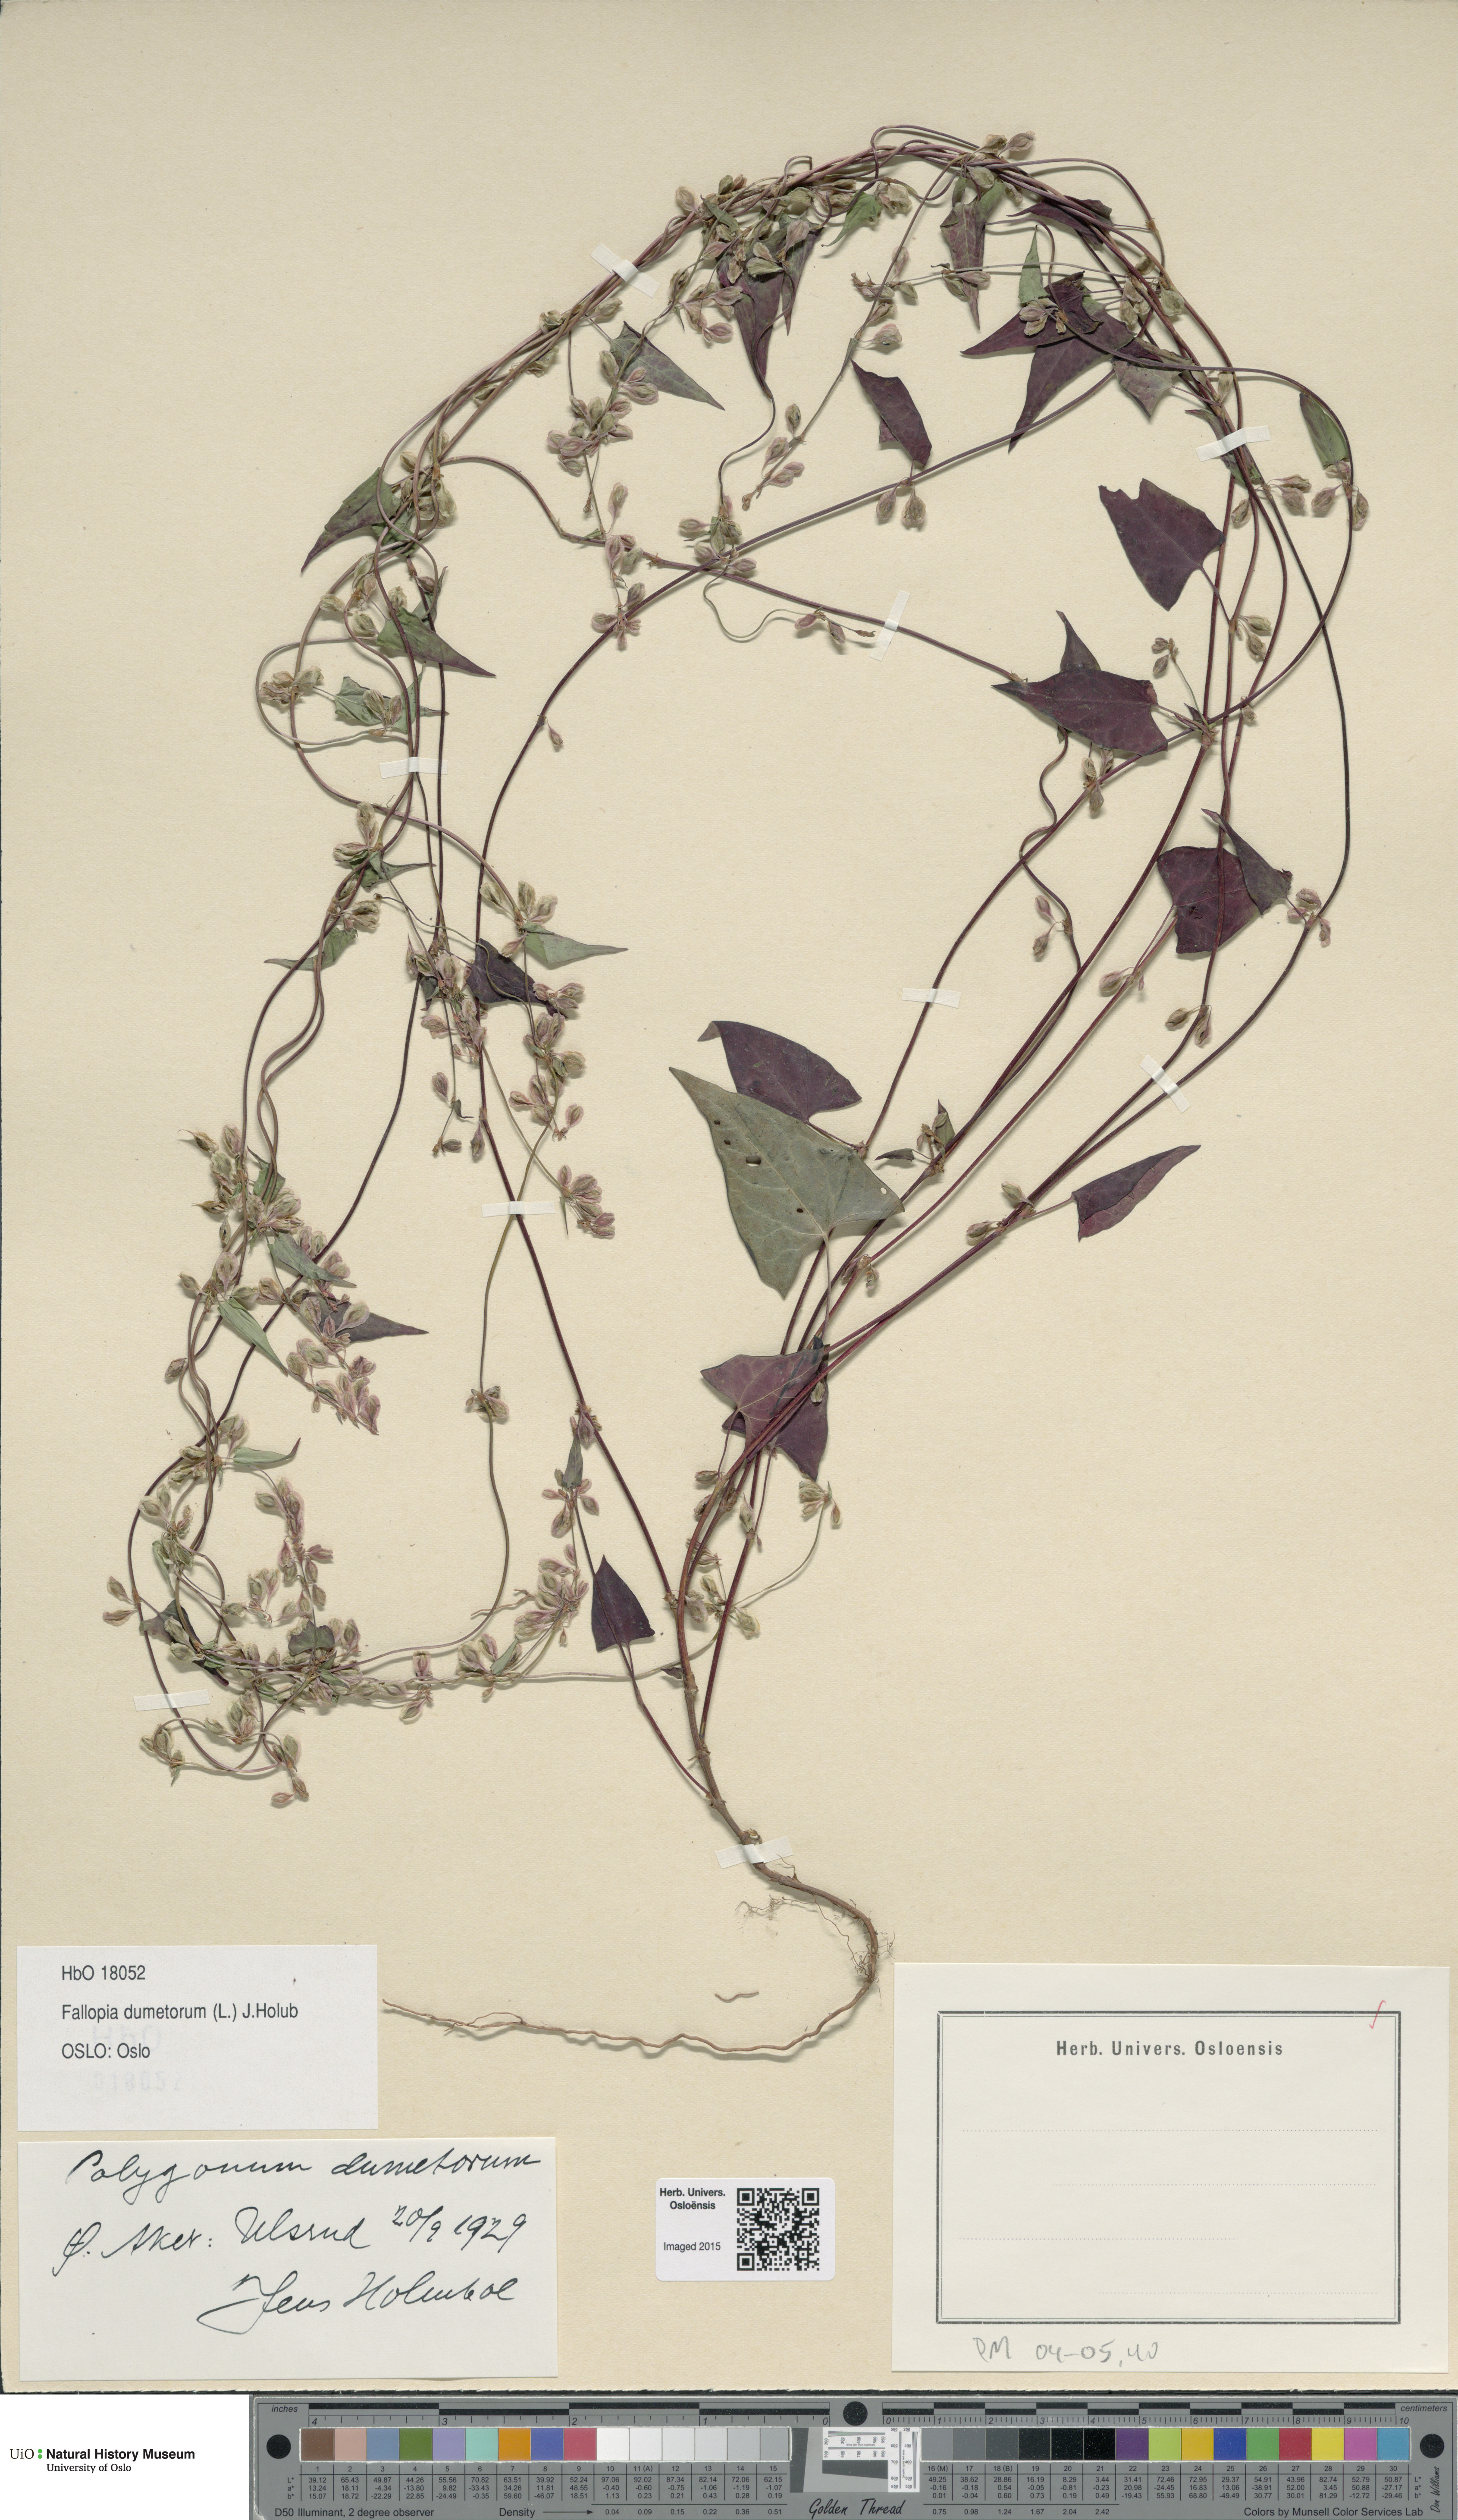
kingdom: Plantae
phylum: Tracheophyta
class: Magnoliopsida
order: Caryophyllales
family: Polygonaceae
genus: Fallopia
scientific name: Fallopia dumetorum
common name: Copse-bindweed
